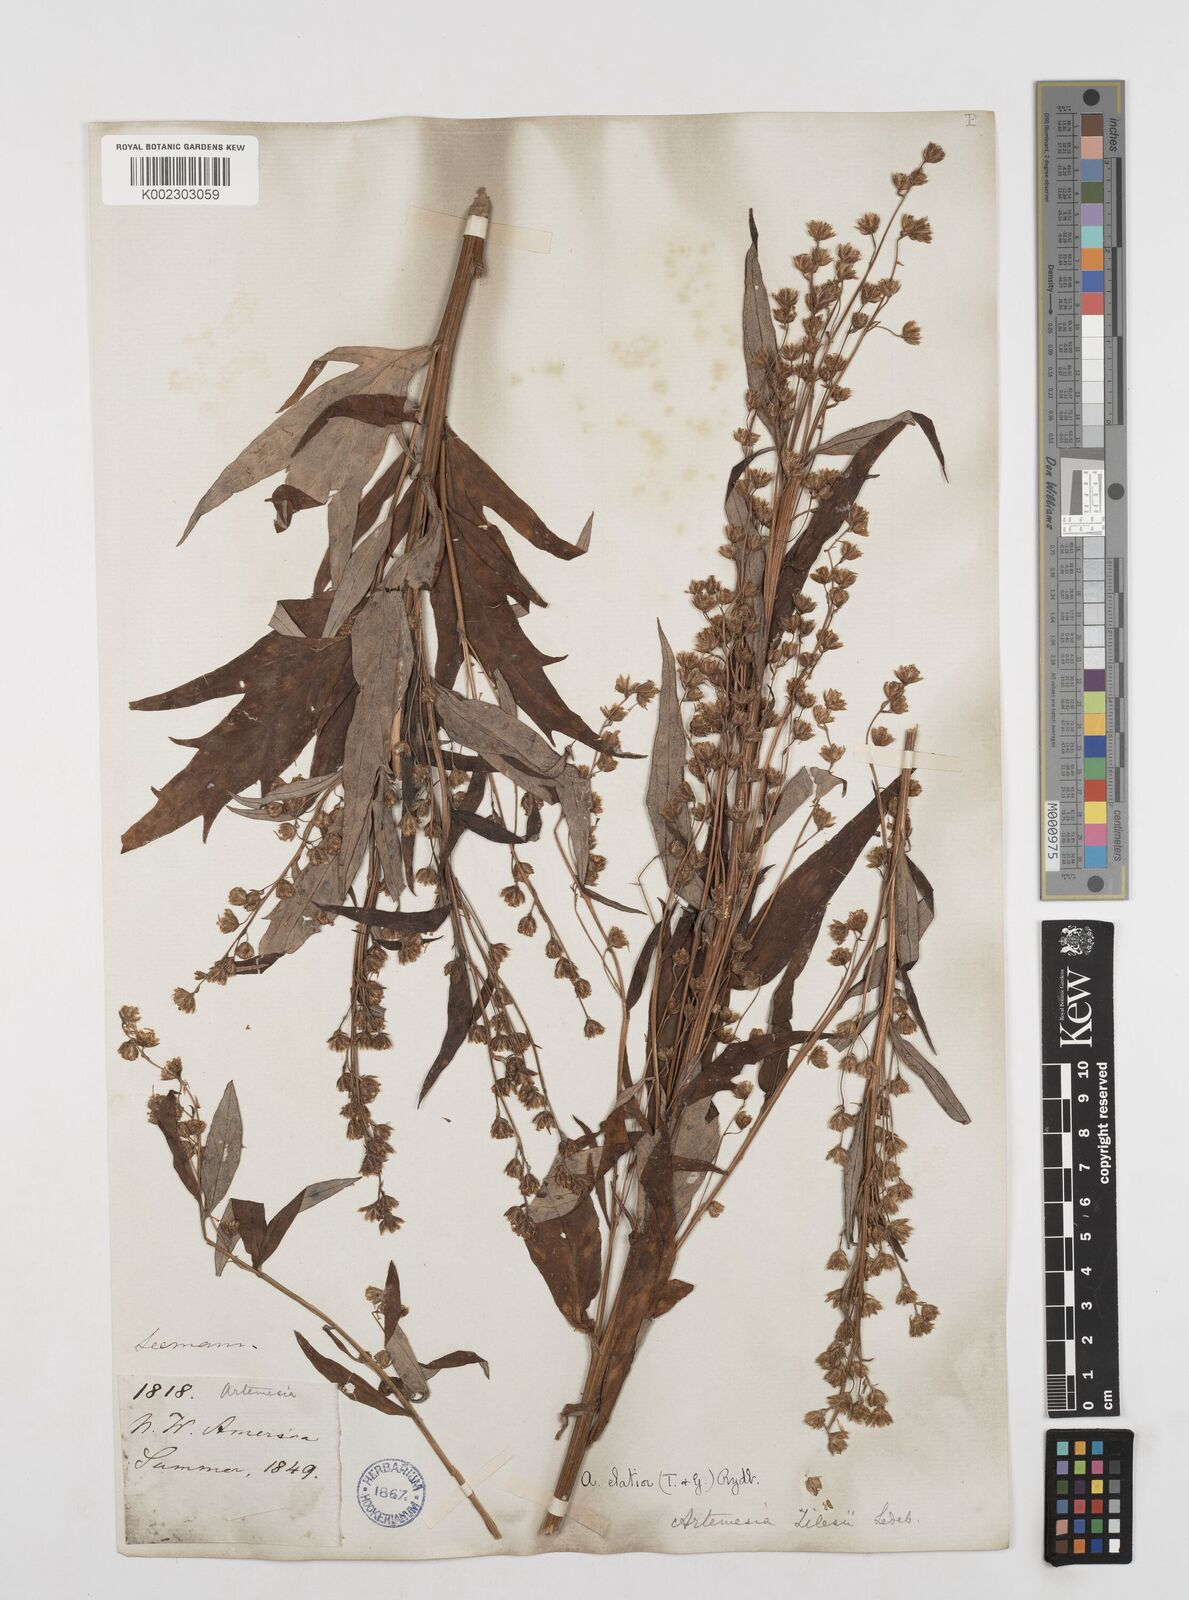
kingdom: Plantae
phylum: Tracheophyta
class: Magnoliopsida
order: Asterales
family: Asteraceae
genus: Artemisia
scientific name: Artemisia tilesii
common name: Aleutian mugwort
